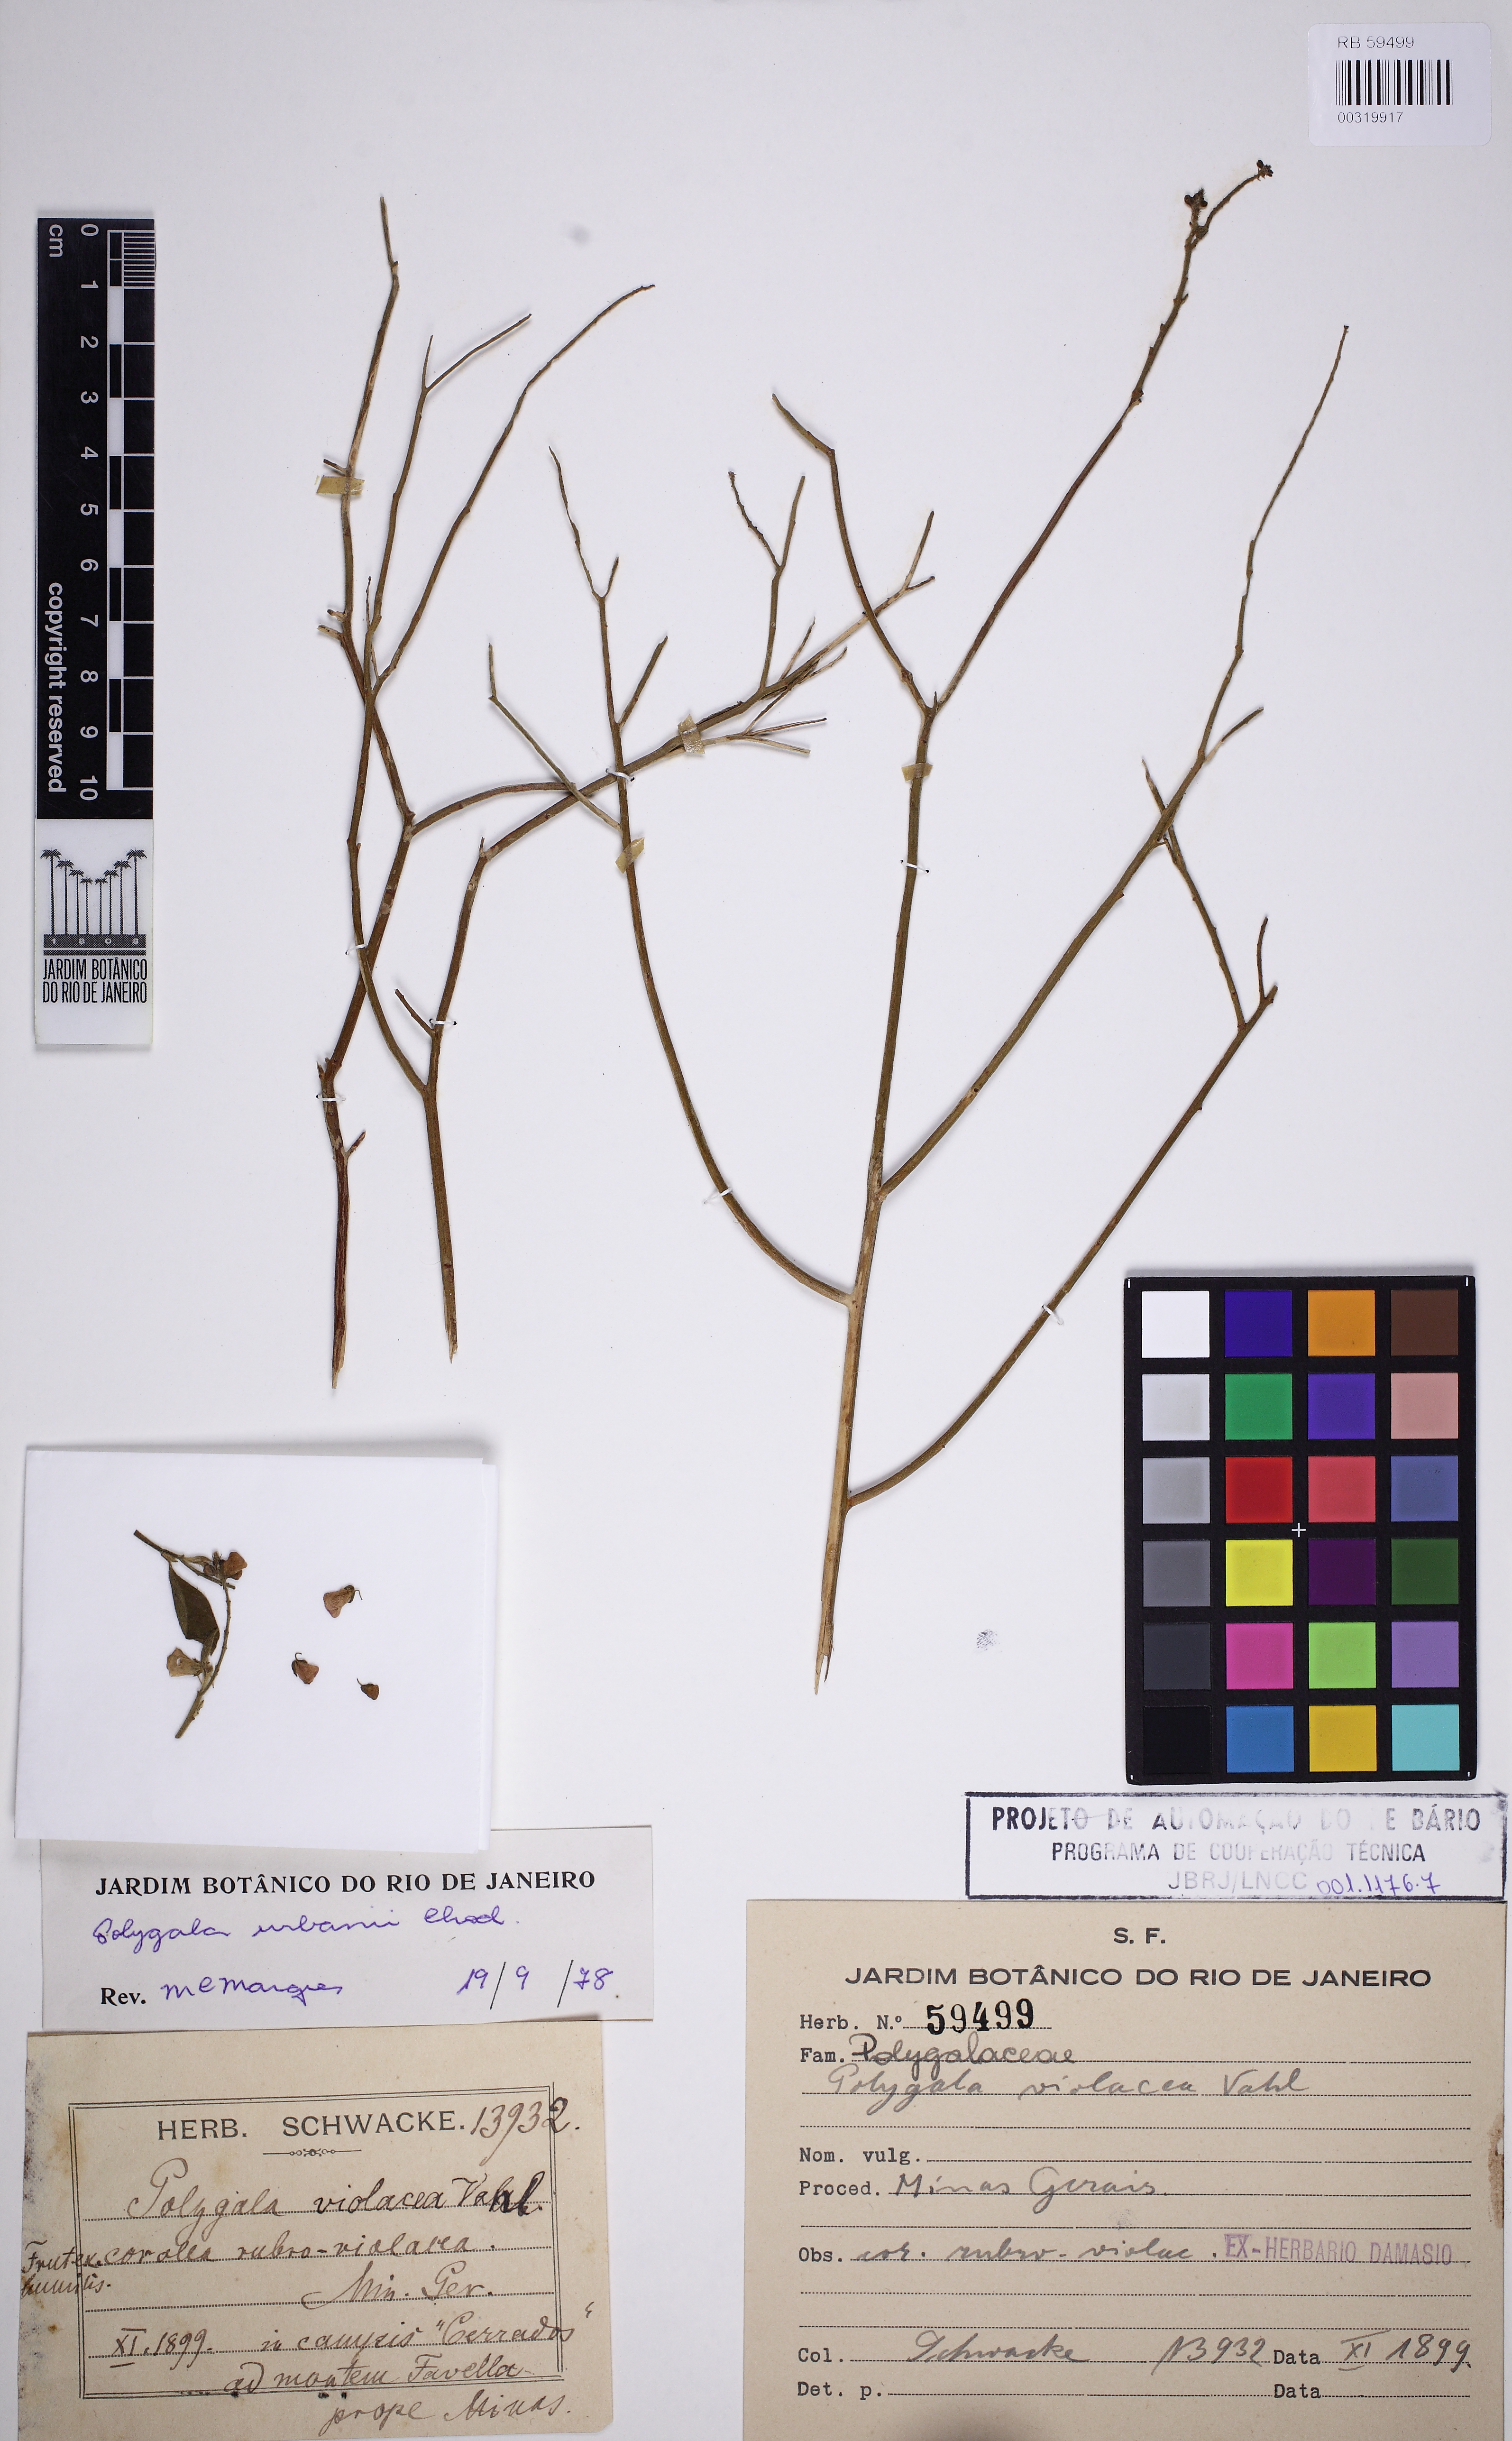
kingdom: Plantae
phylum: Tracheophyta
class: Magnoliopsida
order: Fabales
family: Polygalaceae
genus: Asemeia
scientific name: Asemeia monninoides
